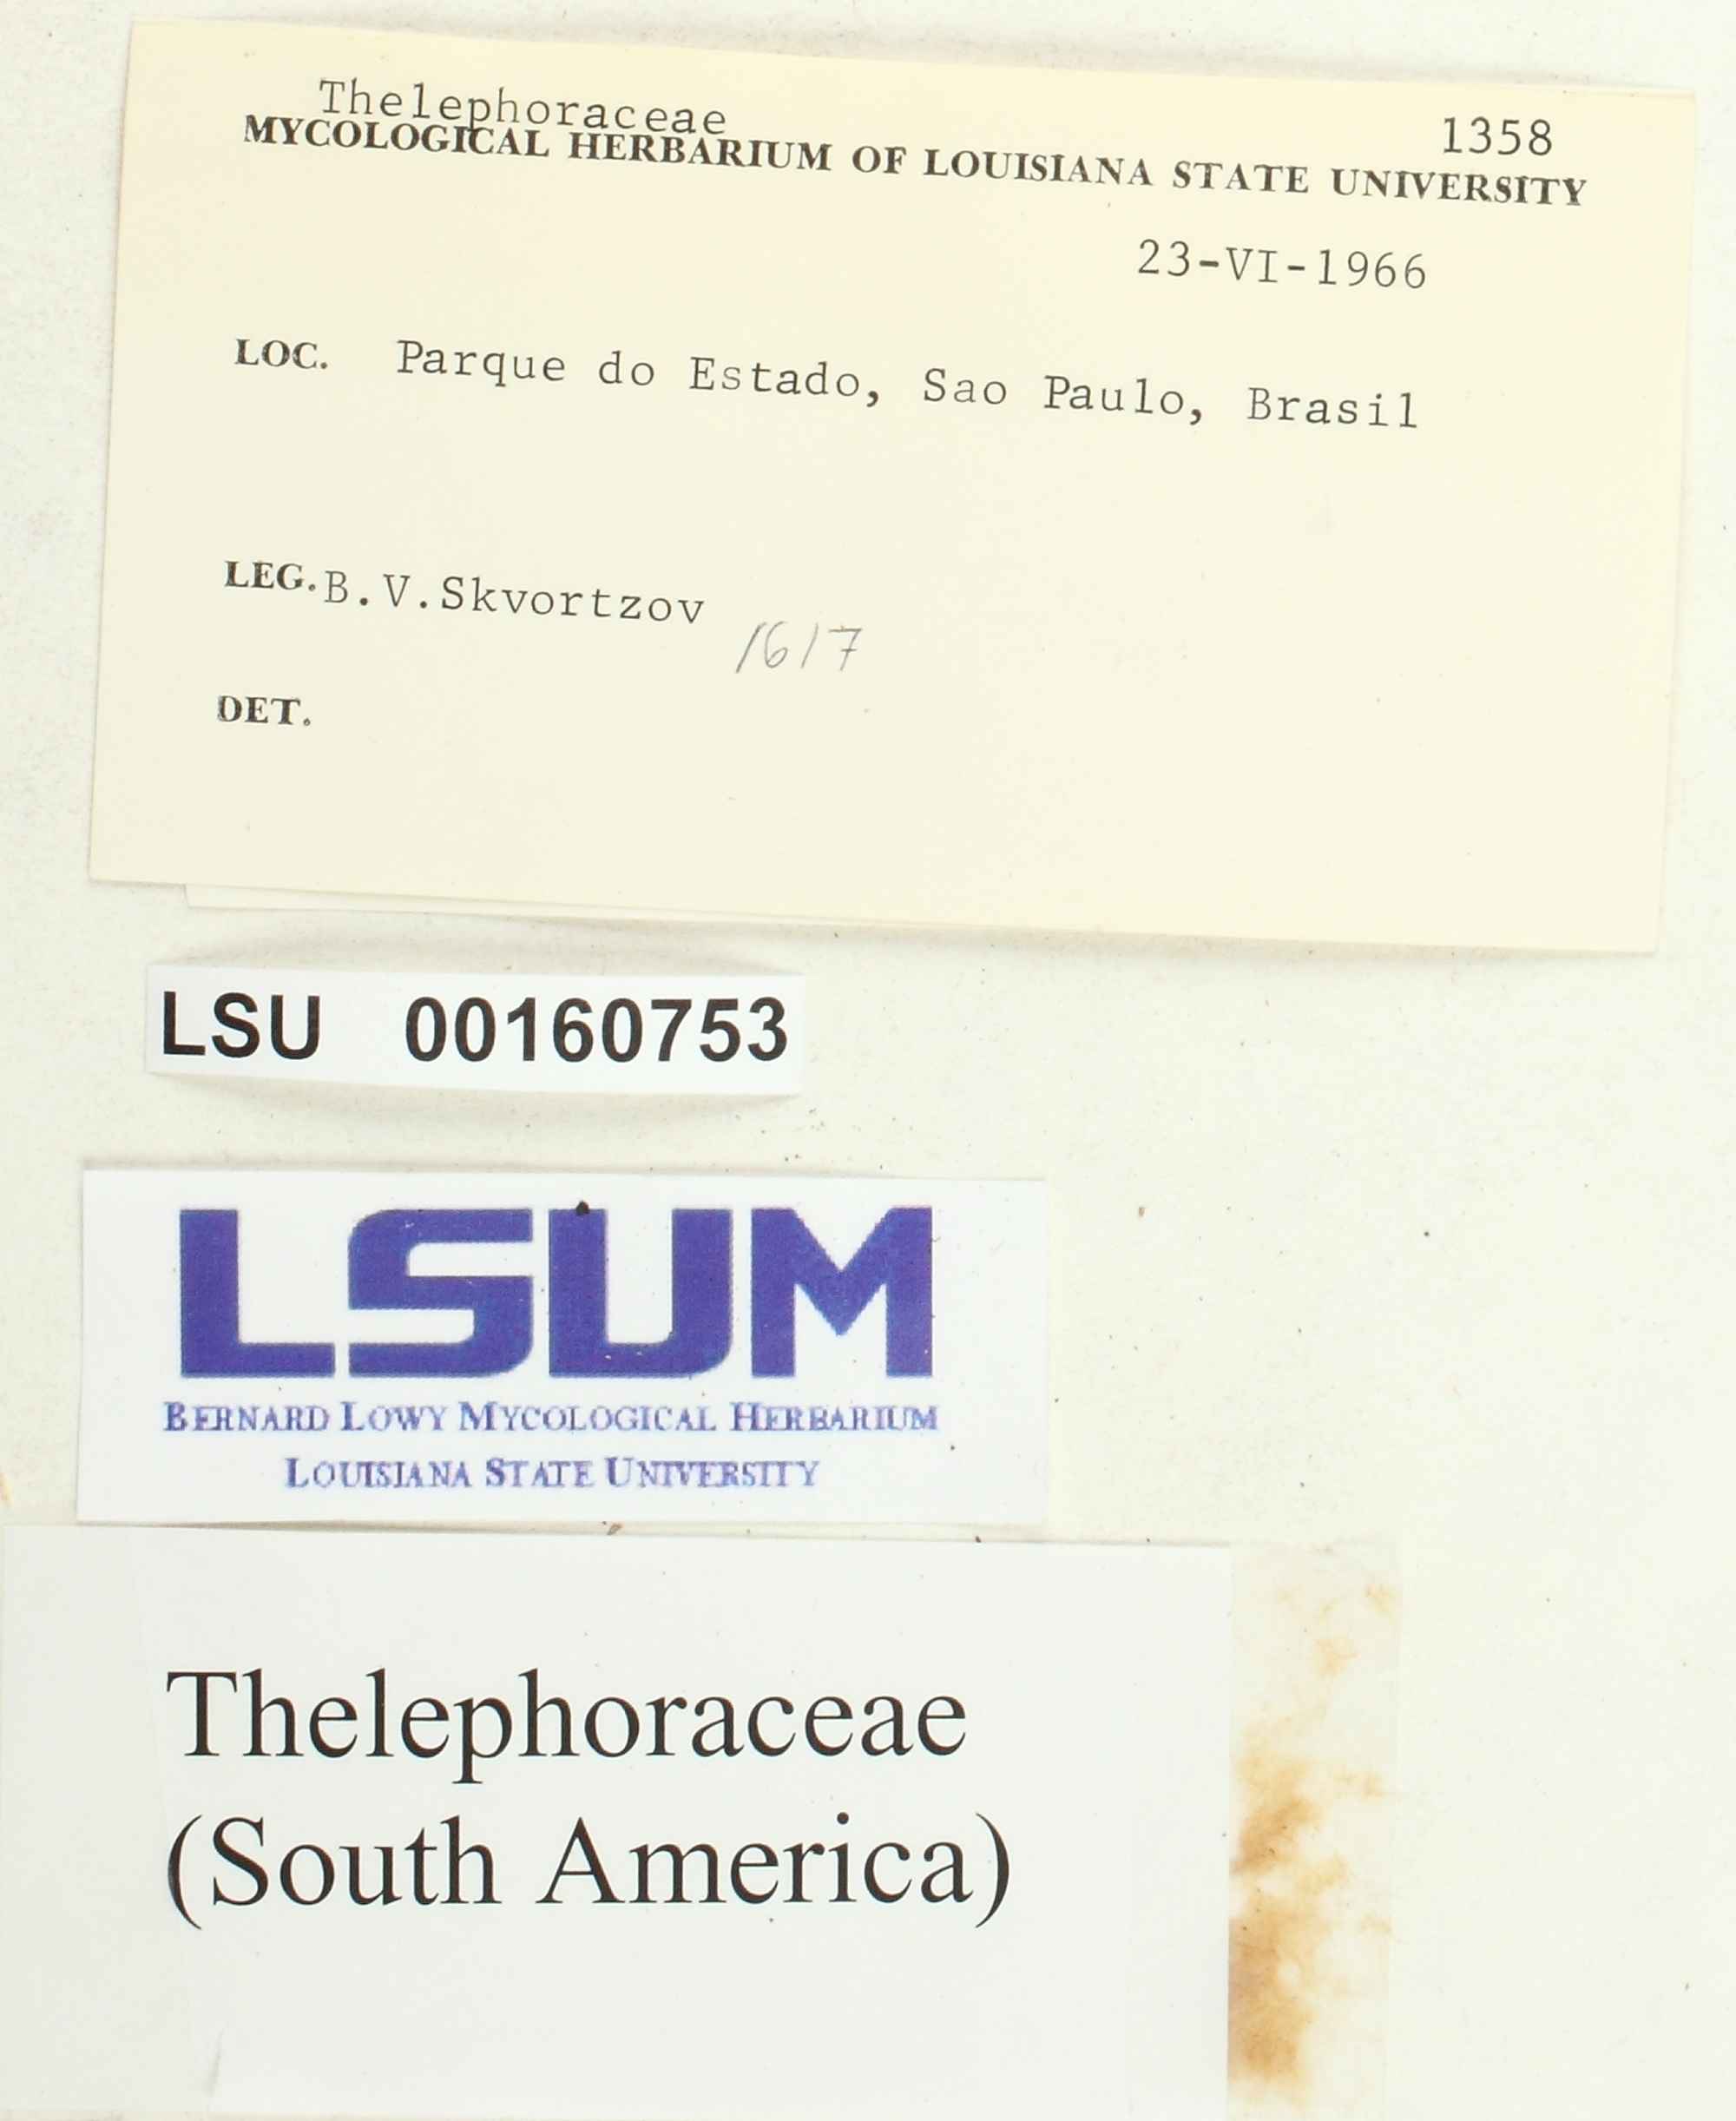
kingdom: Fungi
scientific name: Fungi
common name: Fungi
